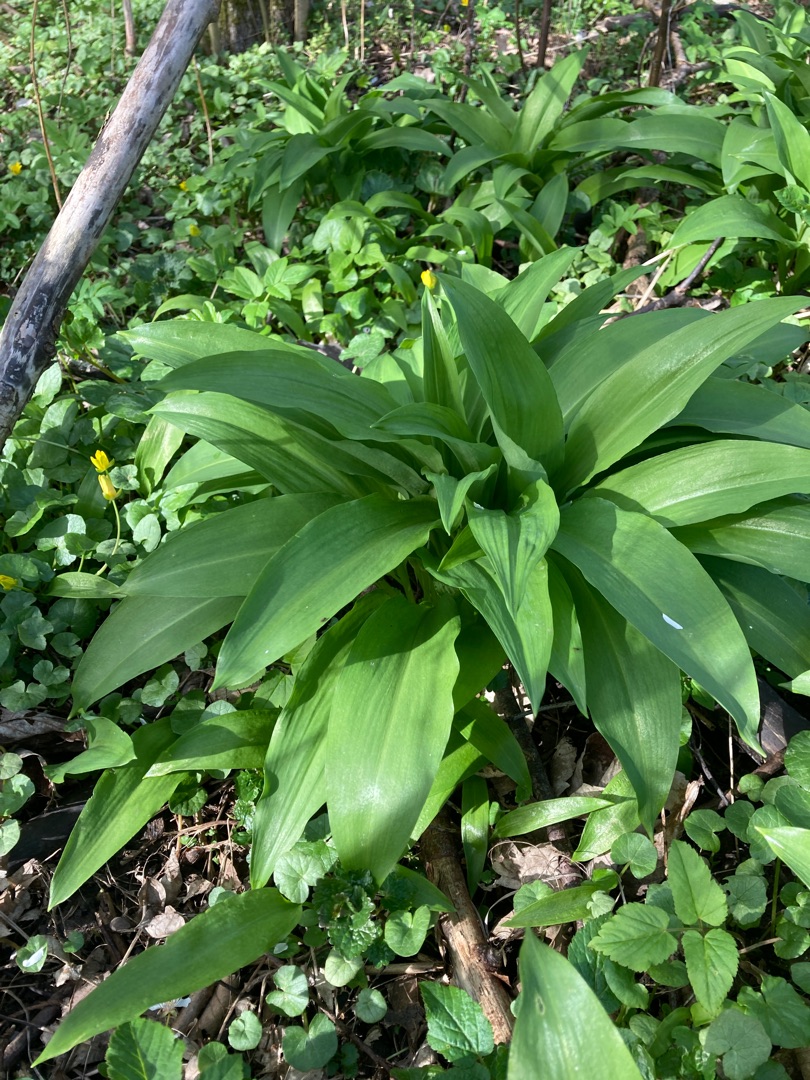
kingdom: Plantae
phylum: Tracheophyta
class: Liliopsida
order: Asparagales
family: Amaryllidaceae
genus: Allium
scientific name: Allium ursinum
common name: Rams-løg
